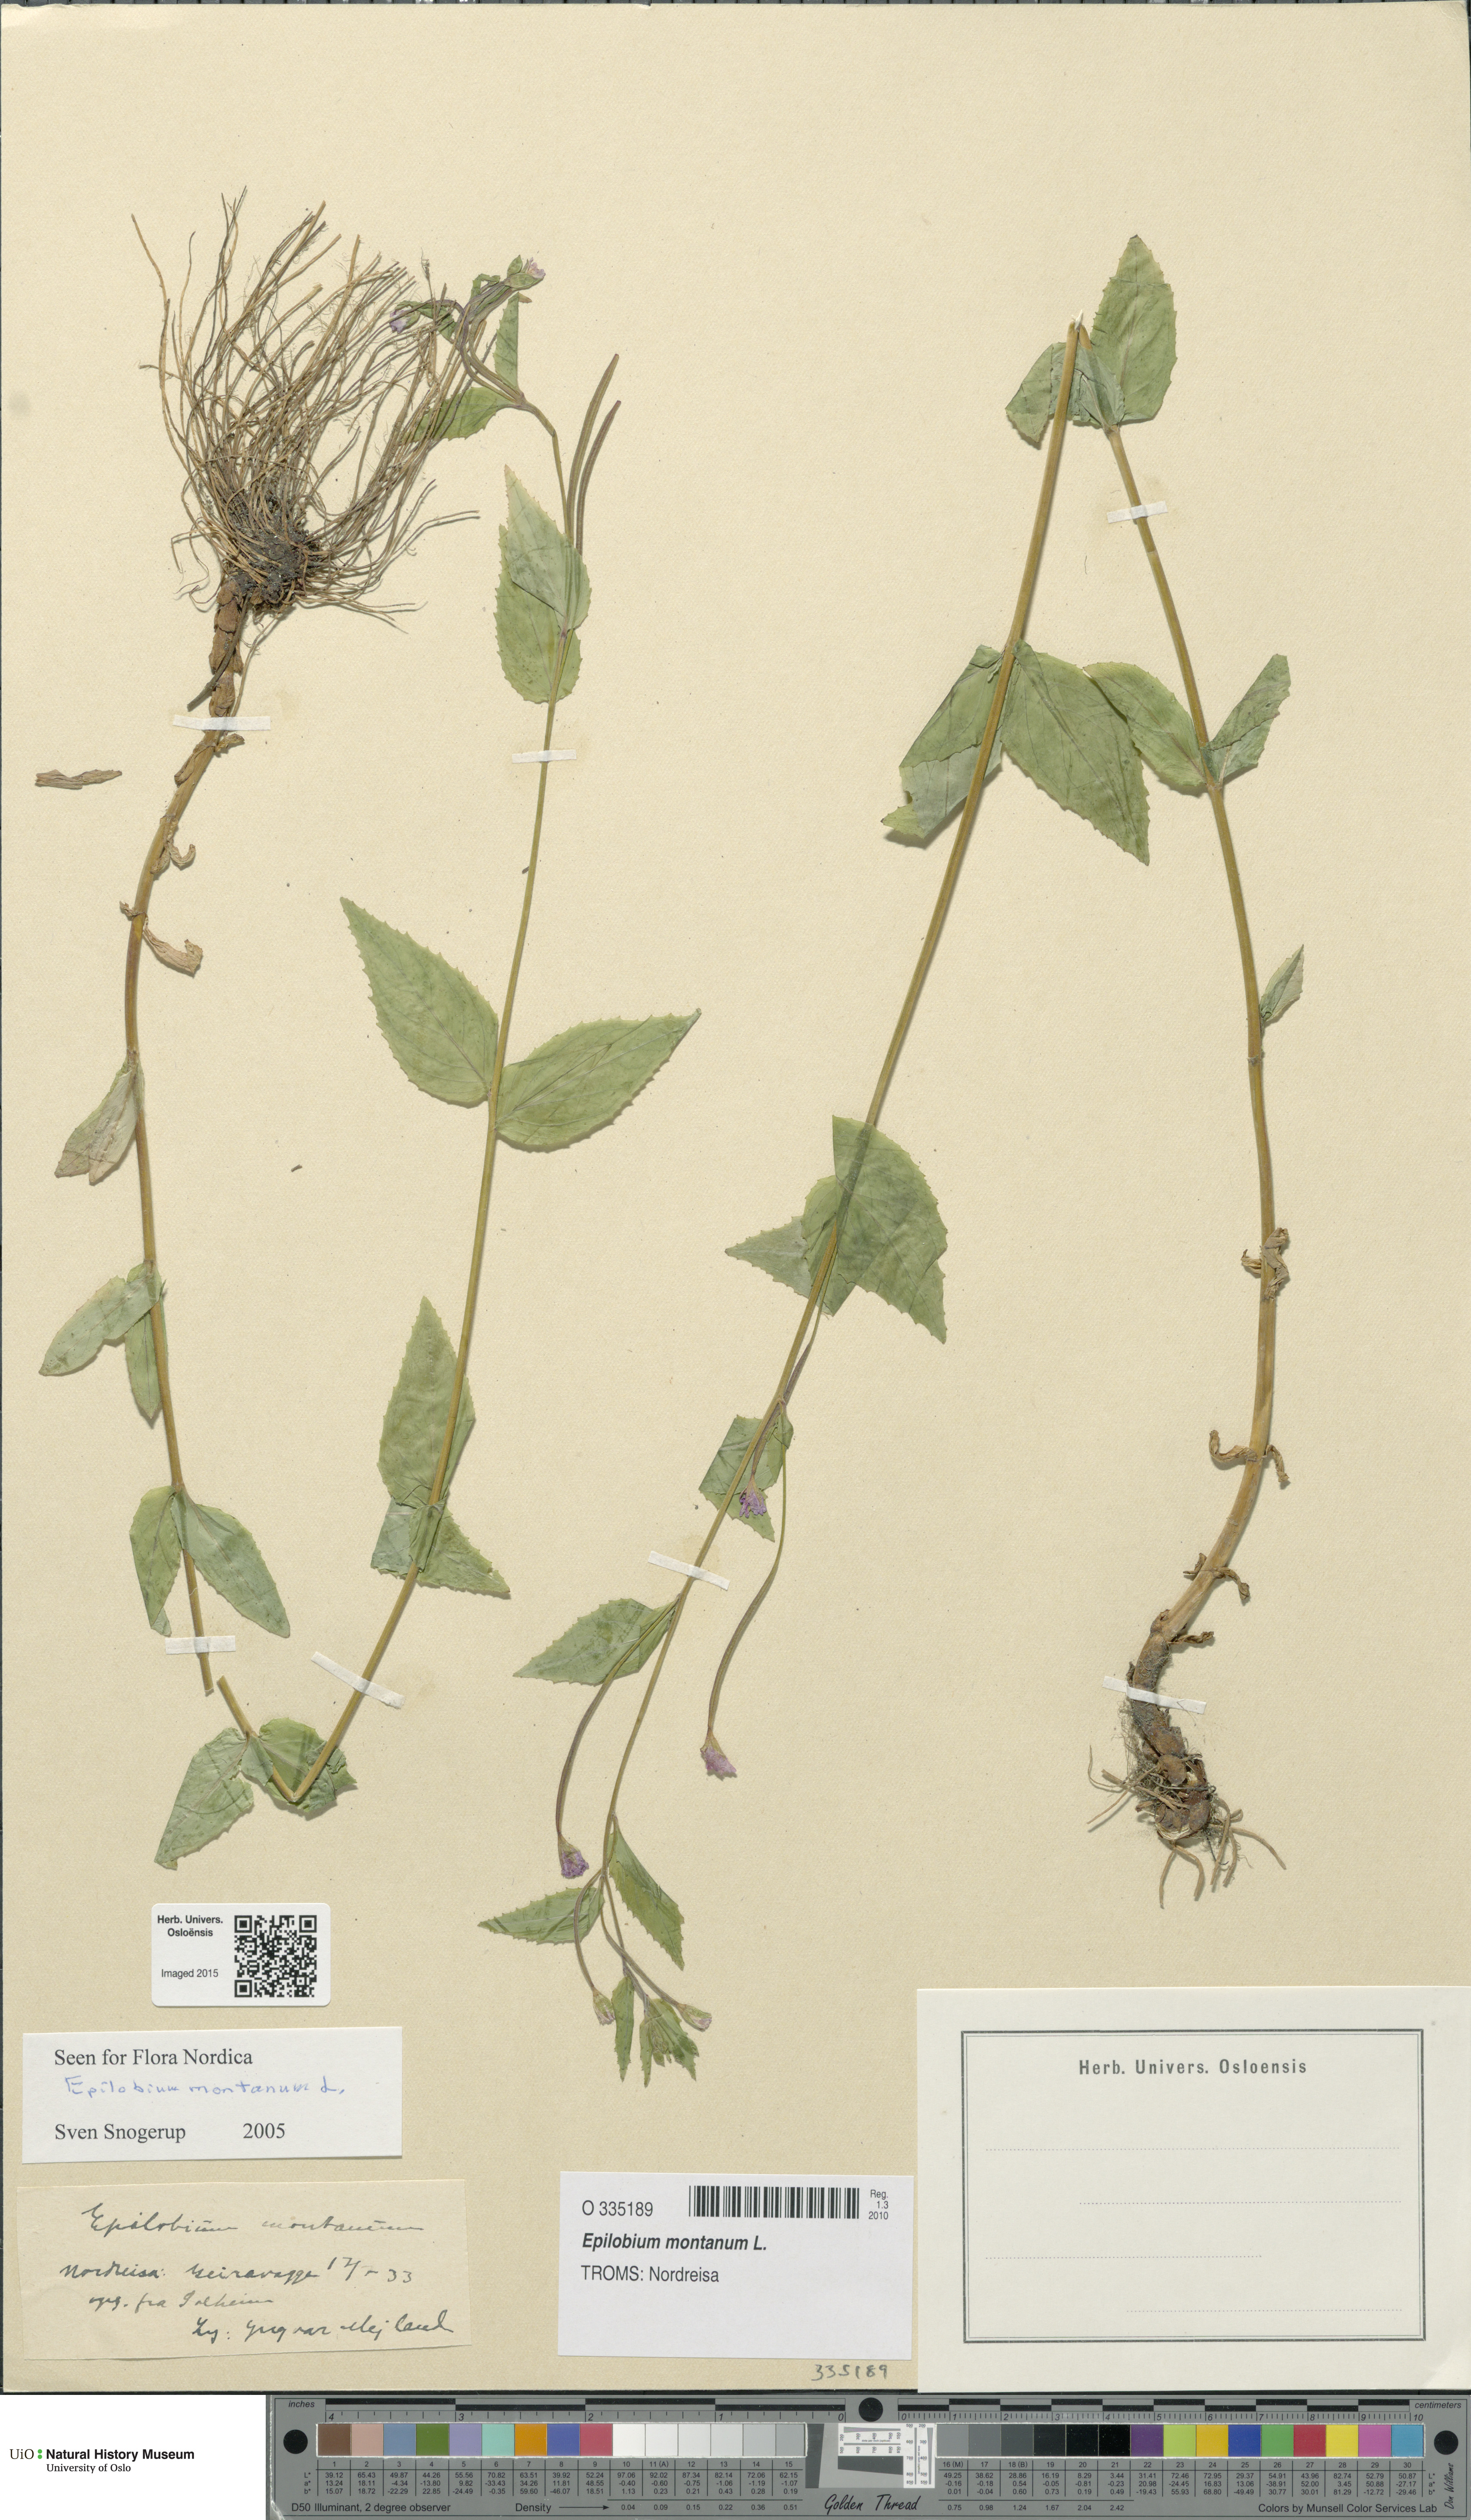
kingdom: Plantae
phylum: Tracheophyta
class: Magnoliopsida
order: Myrtales
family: Onagraceae
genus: Epilobium
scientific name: Epilobium montanum
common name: Broad-leaved willowherb
